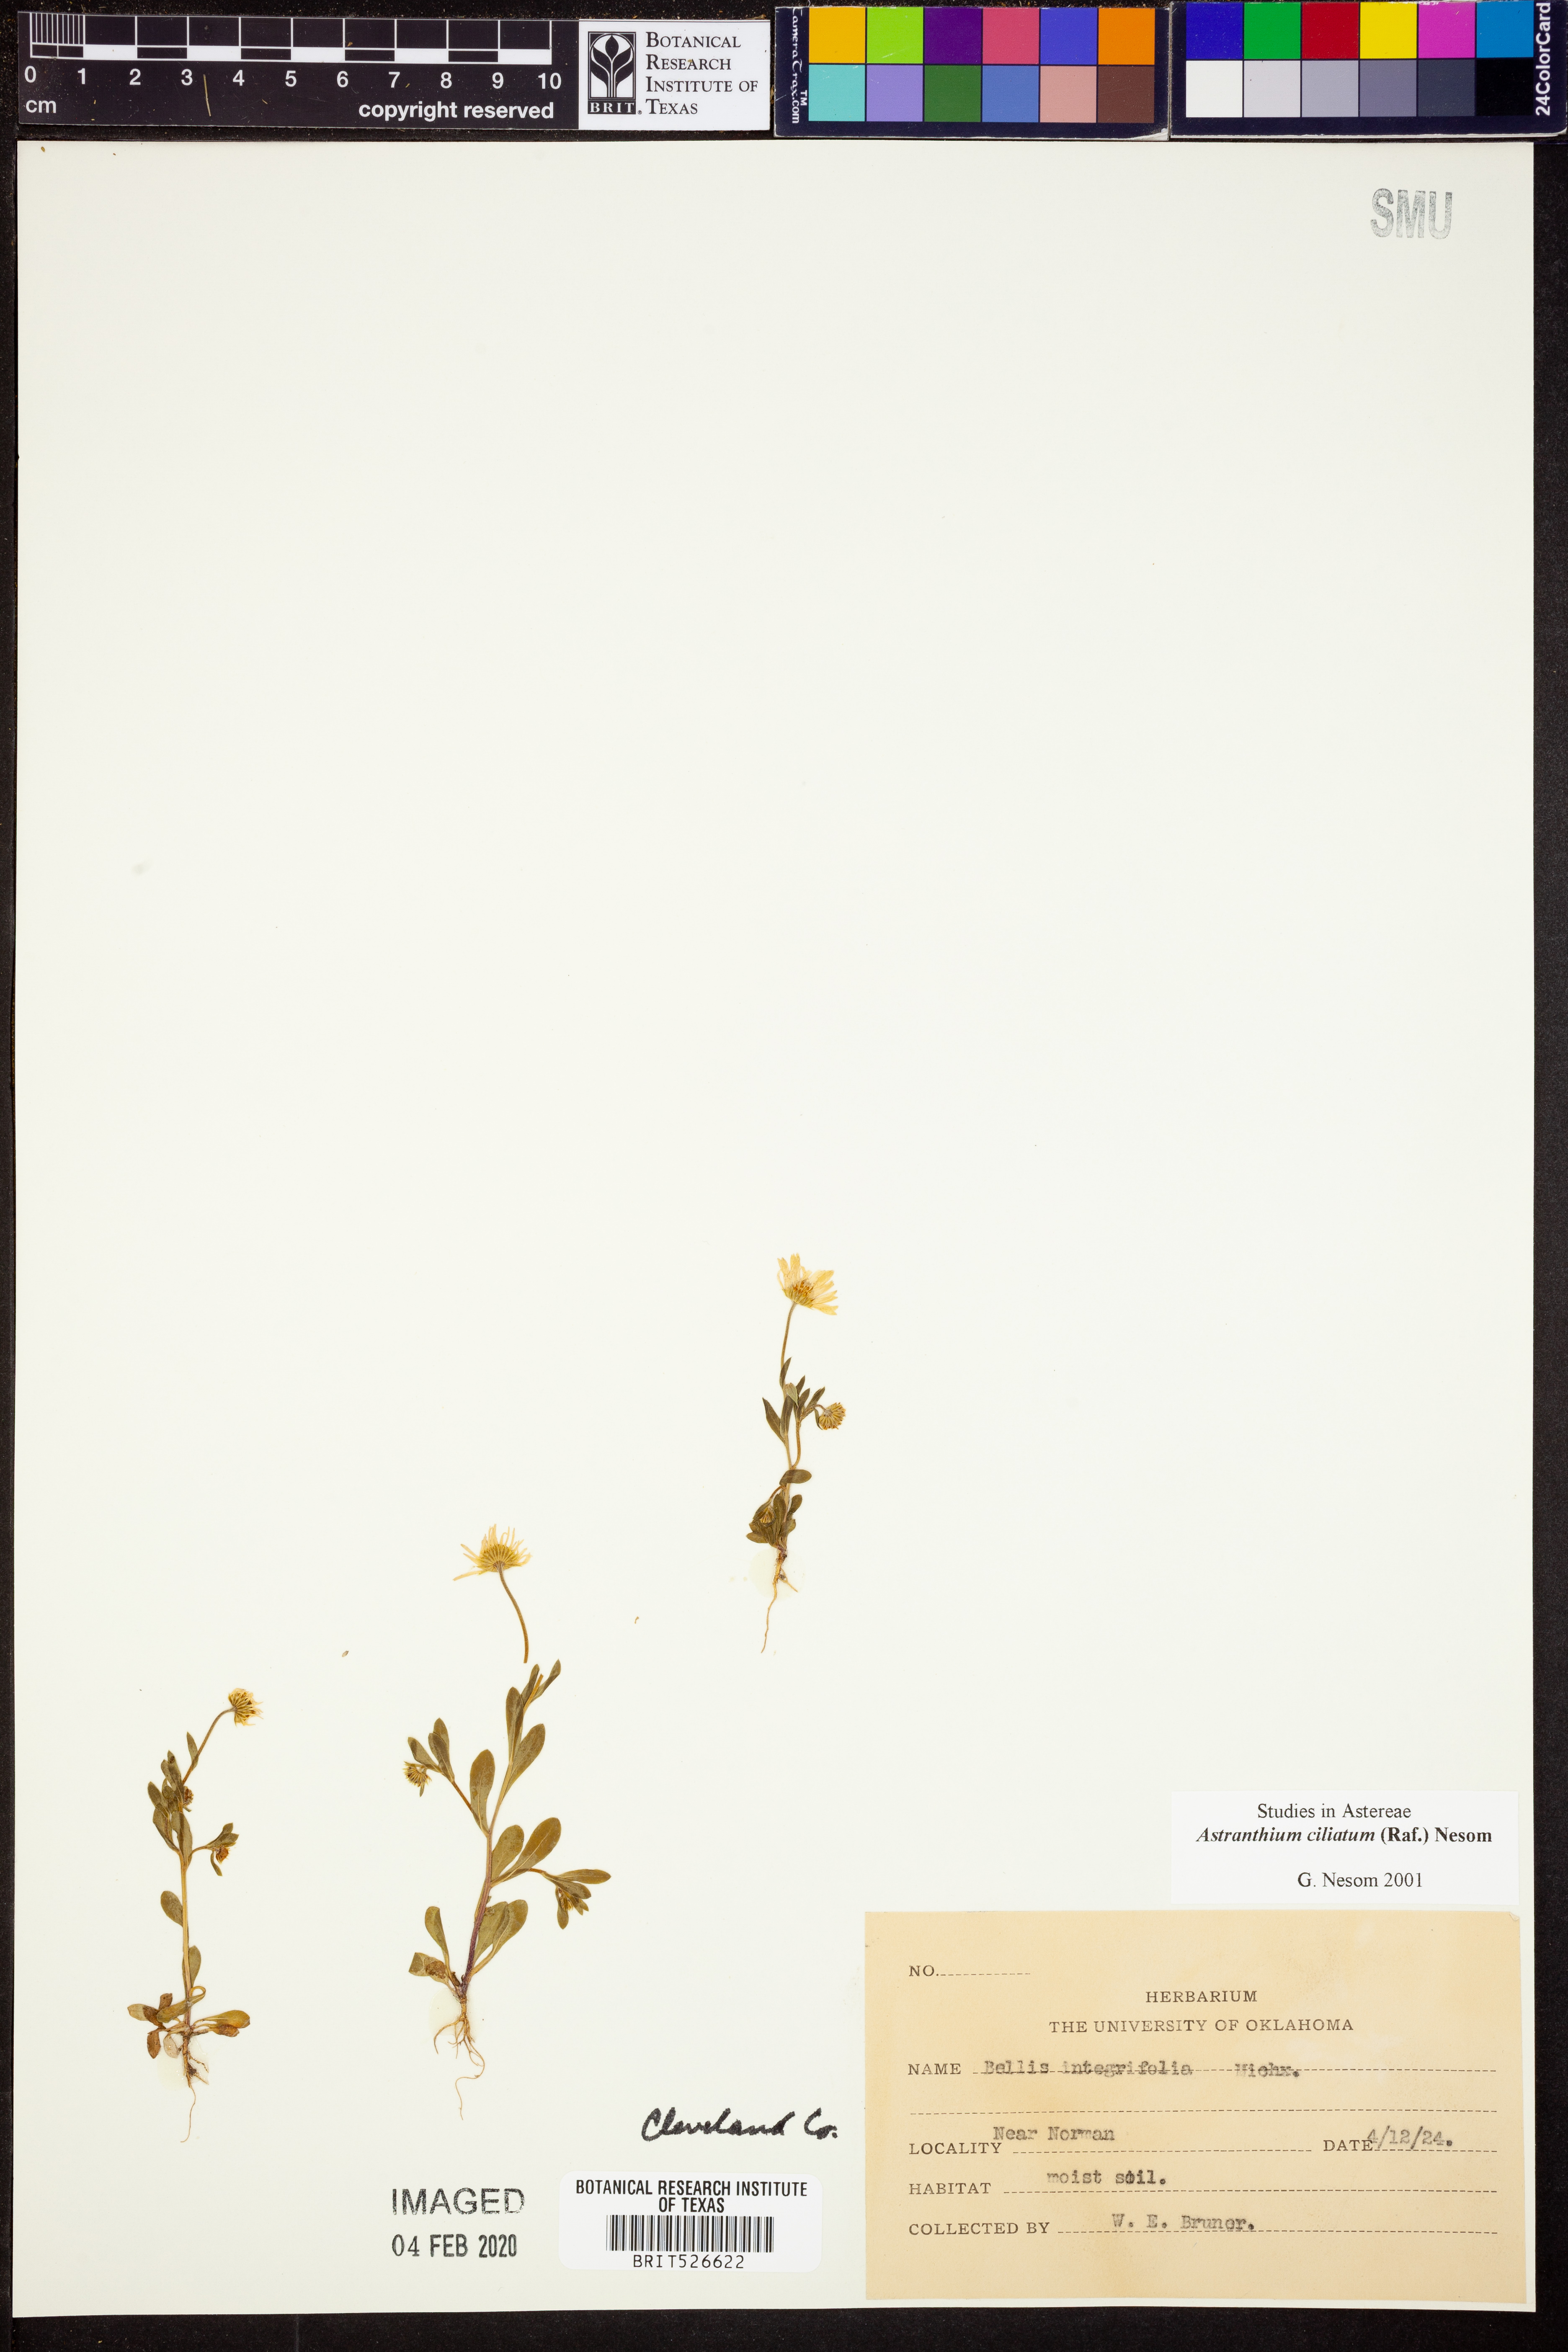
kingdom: Plantae
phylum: Tracheophyta
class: Magnoliopsida
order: Asterales
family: Asteraceae
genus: Astranthium
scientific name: Astranthium ciliatum
